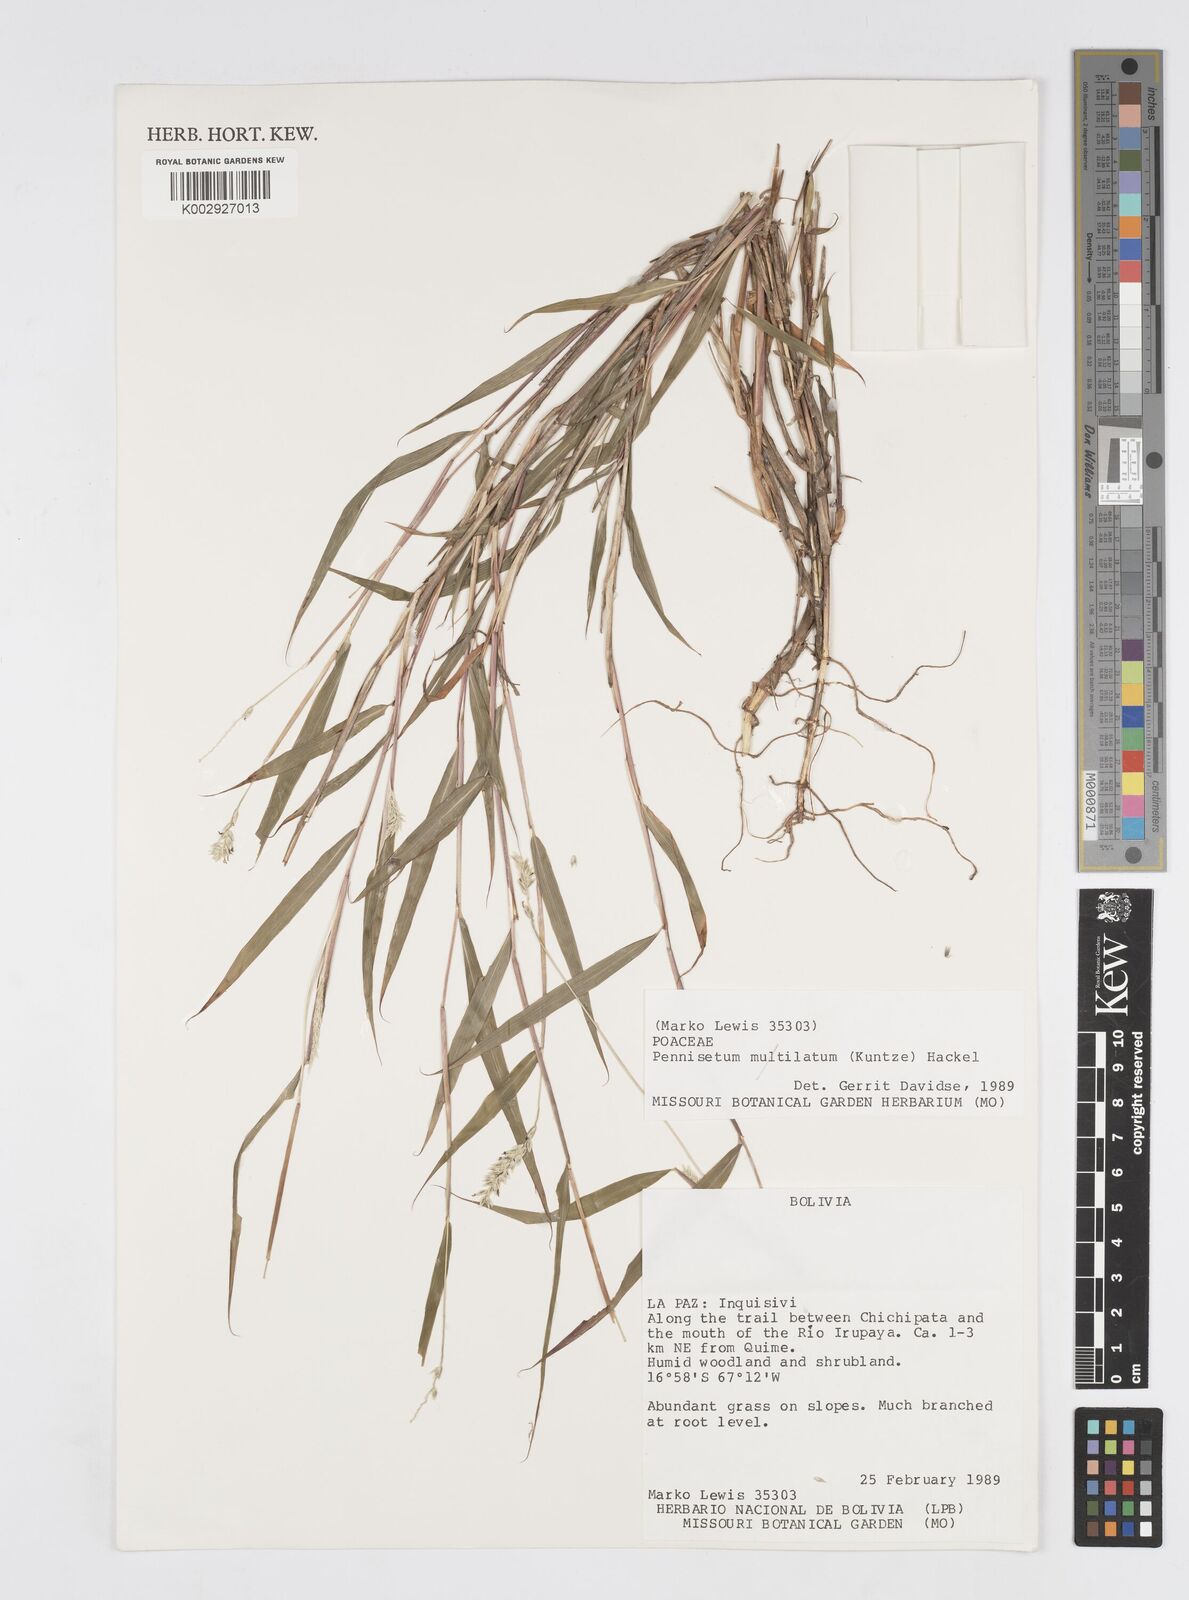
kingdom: Plantae
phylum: Tracheophyta
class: Liliopsida
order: Poales
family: Poaceae
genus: Cenchrus
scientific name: Cenchrus mutilatus
